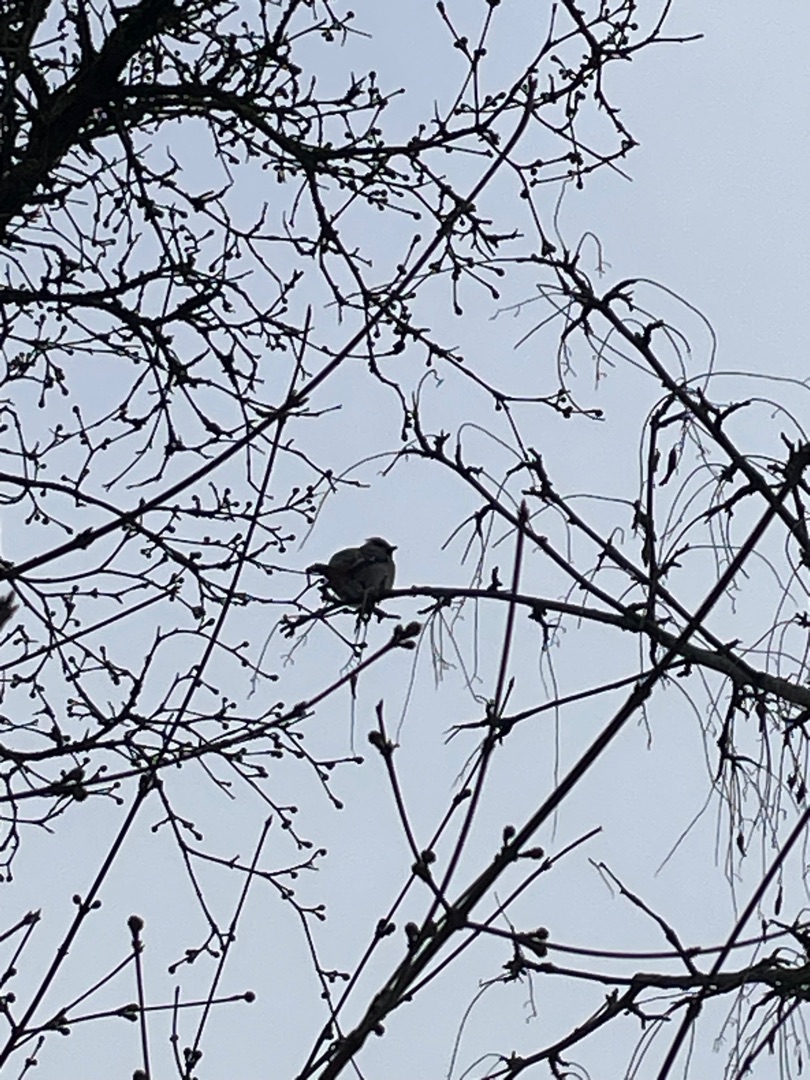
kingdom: Animalia
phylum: Chordata
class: Aves
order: Passeriformes
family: Bombycillidae
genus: Bombycilla
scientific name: Bombycilla garrulus
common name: Silkehale
